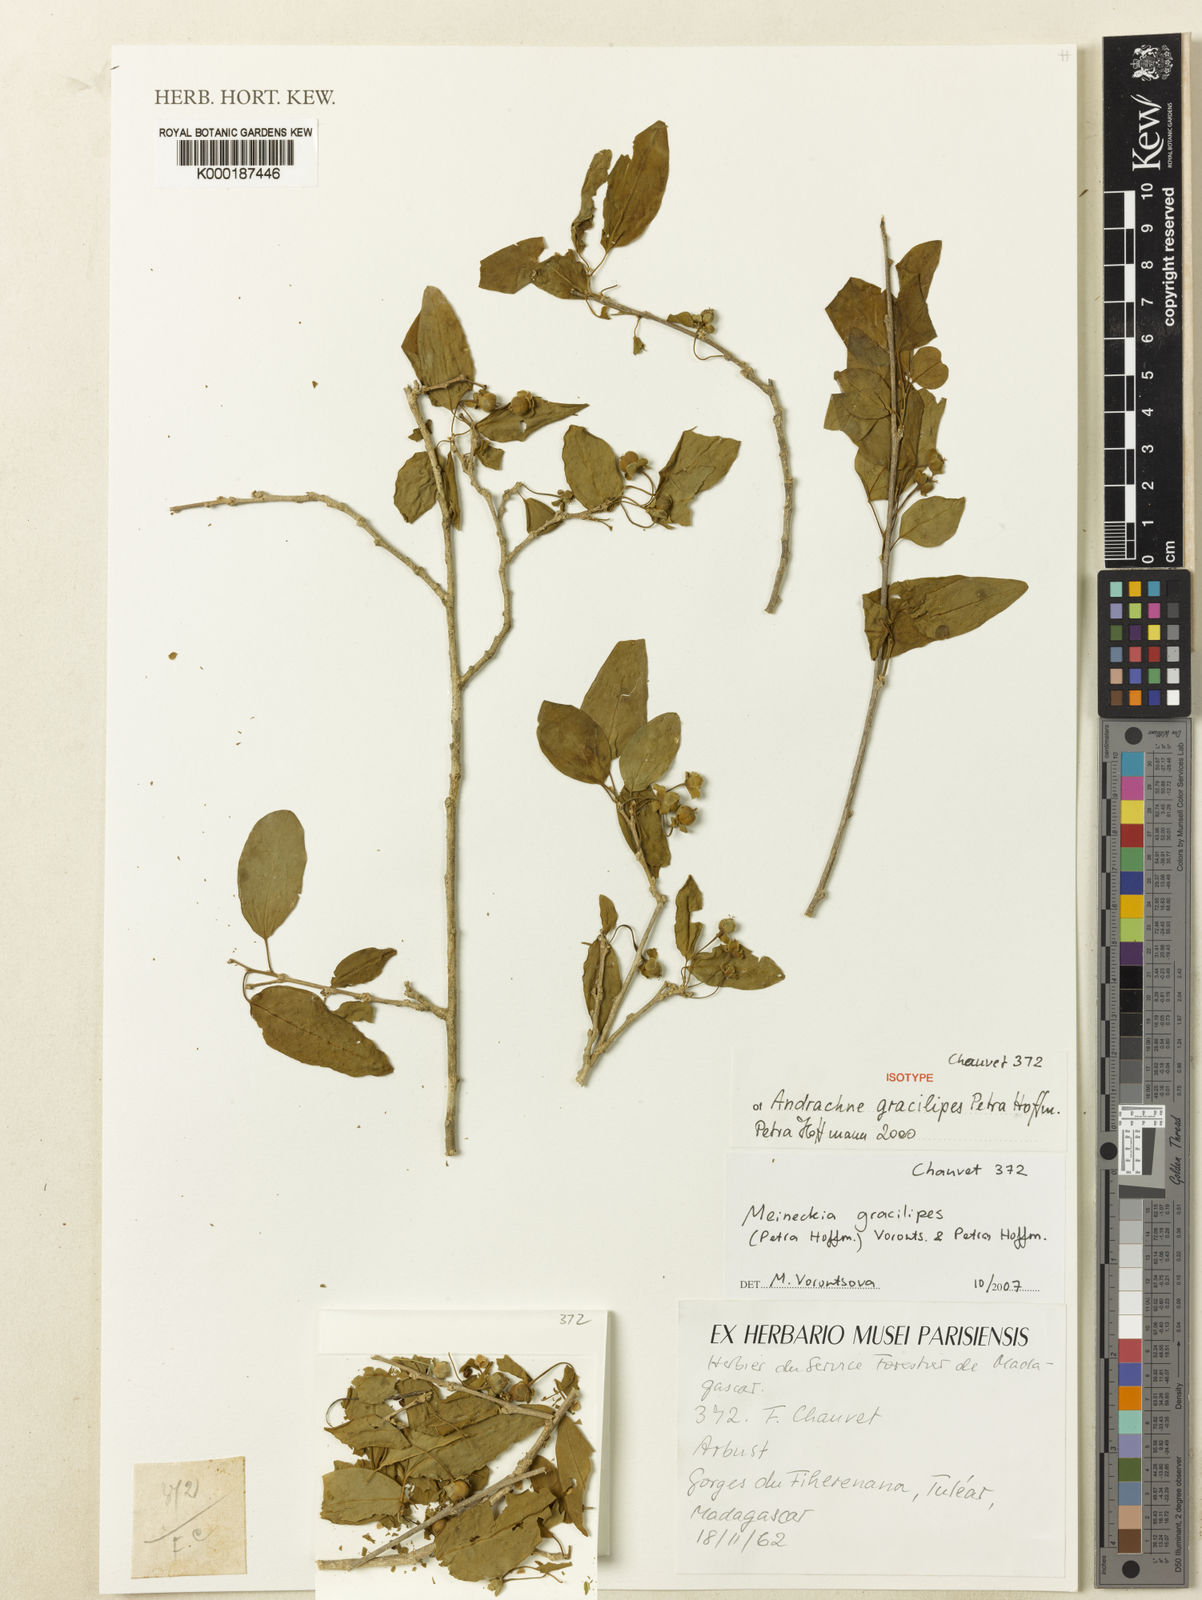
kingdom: Plantae
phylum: Tracheophyta
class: Magnoliopsida
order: Malpighiales
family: Phyllanthaceae
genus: Meineckia
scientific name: Meineckia gracilipes
